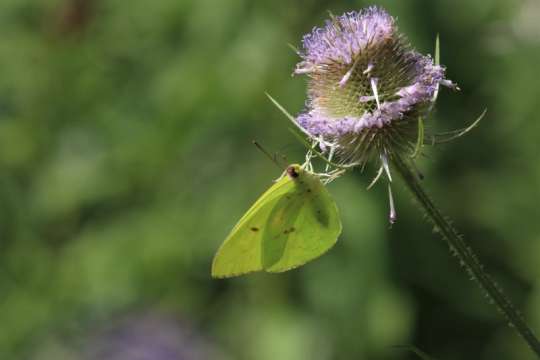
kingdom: Animalia
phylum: Arthropoda
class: Insecta
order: Lepidoptera
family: Pieridae
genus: Phoebis
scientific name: Phoebis sennae
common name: Cloudless Sulphur
